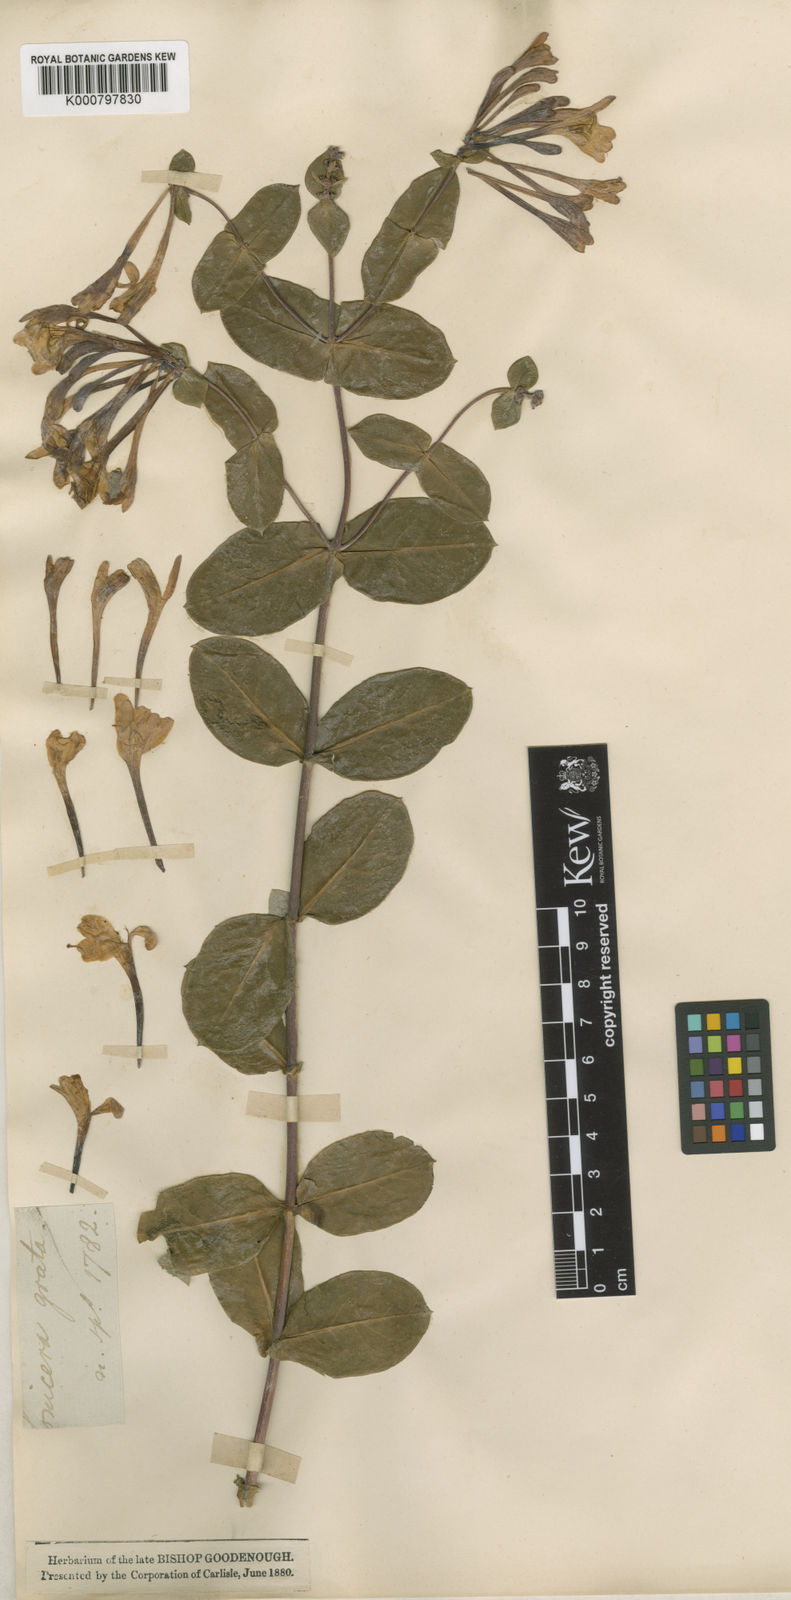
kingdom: Plantae
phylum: Tracheophyta
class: Magnoliopsida
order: Dipsacales
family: Caprifoliaceae
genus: Lonicera
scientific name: Lonicera caprifolium
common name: Perfoliate honeysuckle
